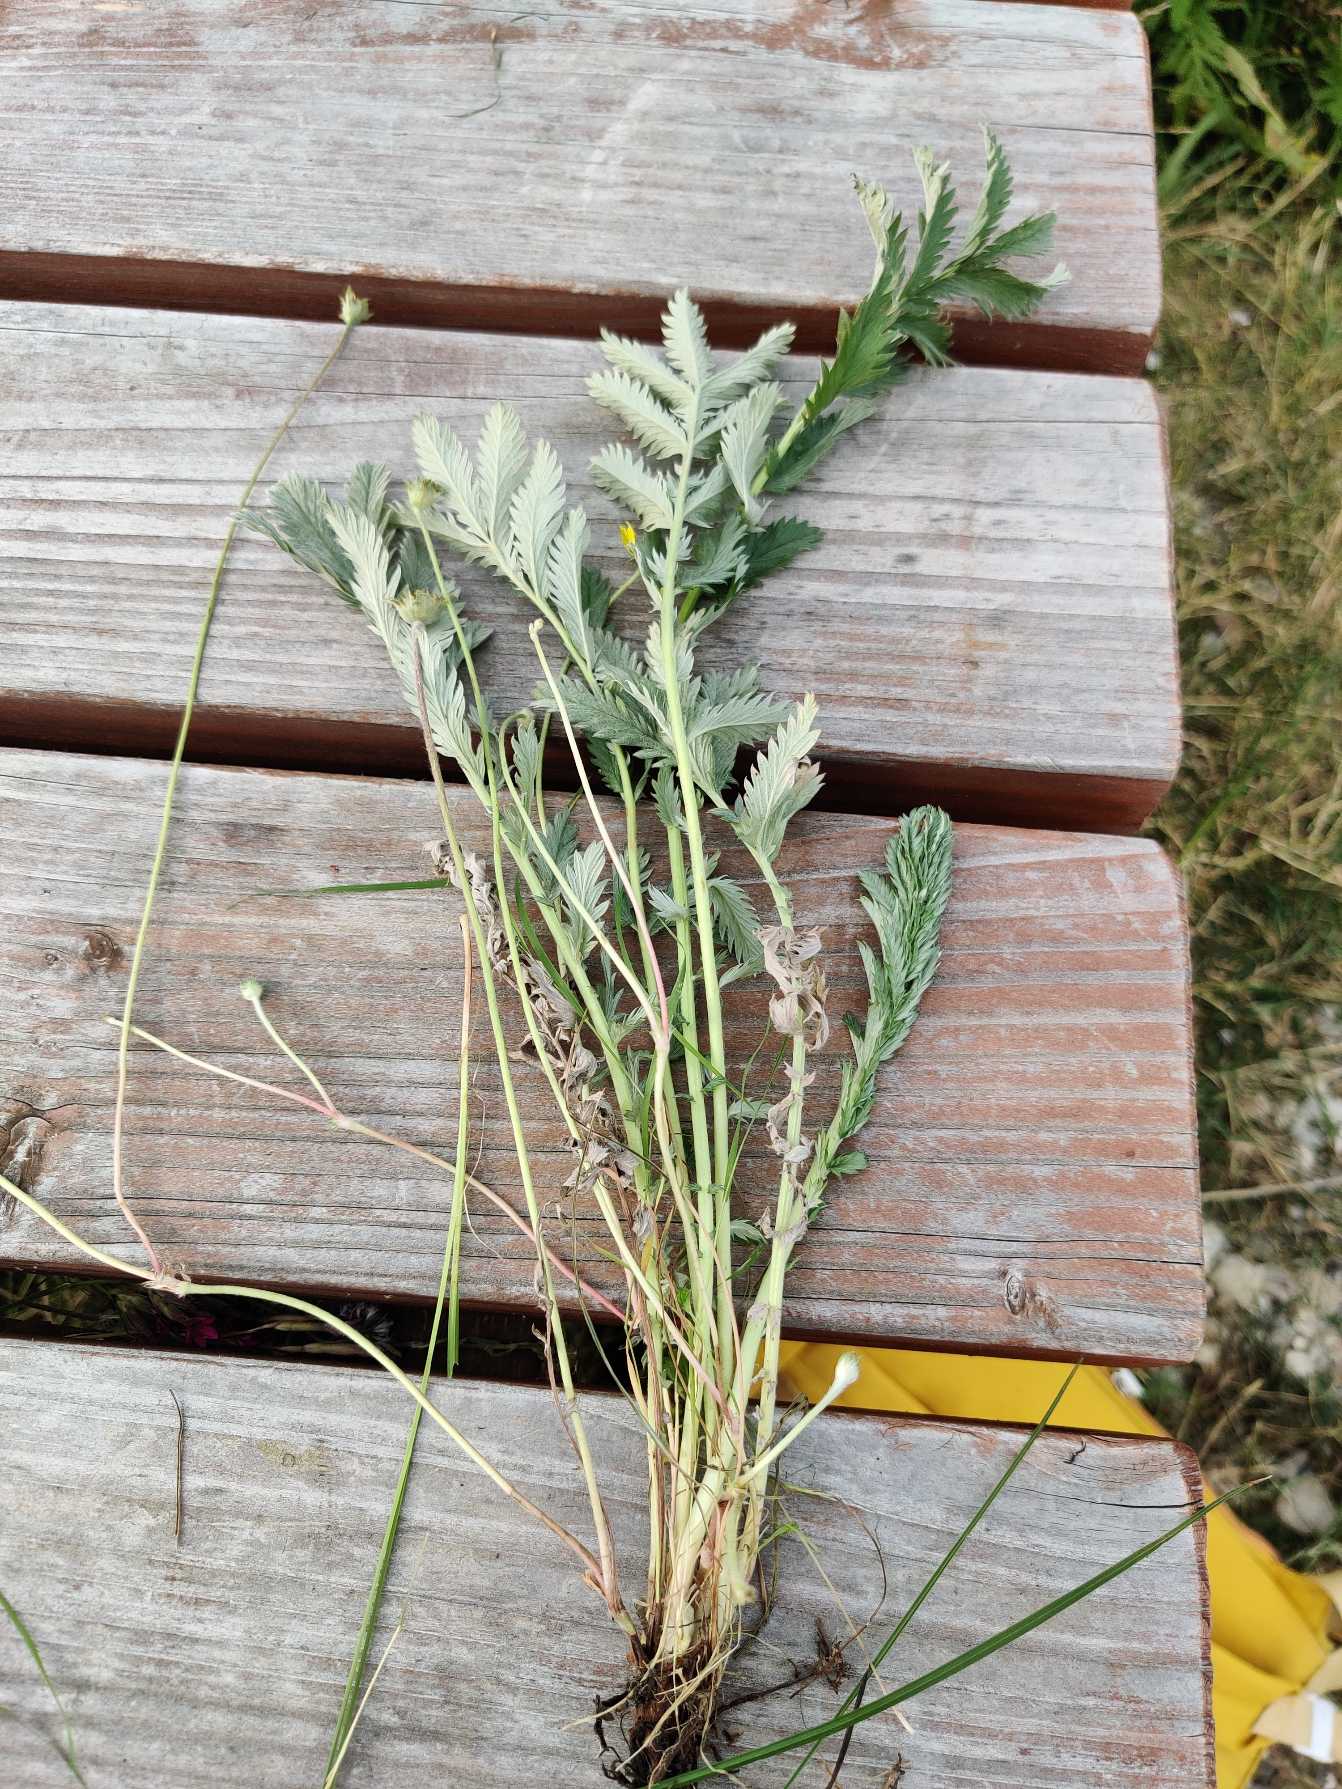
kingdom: Plantae
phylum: Tracheophyta
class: Magnoliopsida
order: Rosales
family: Rosaceae
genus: Argentina
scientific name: Argentina anserina
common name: Gåsepotentil
